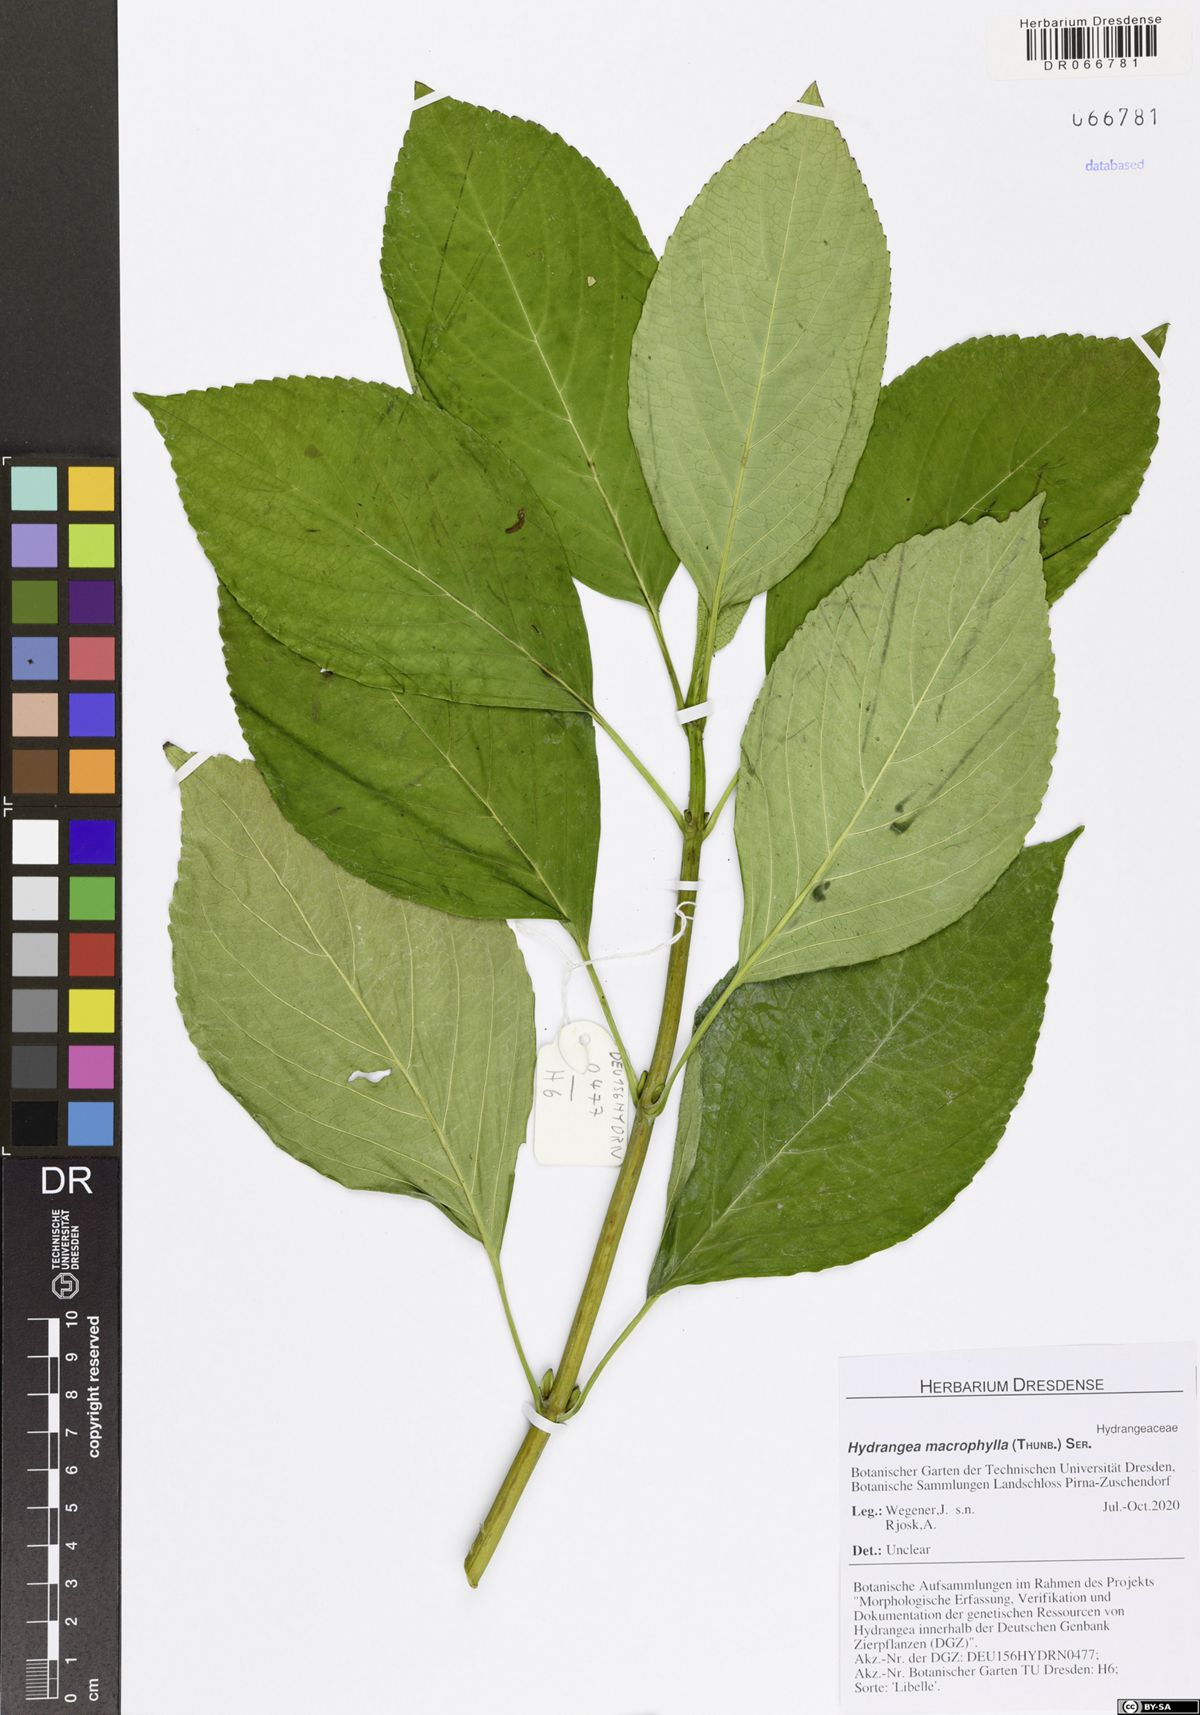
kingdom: Plantae
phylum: Tracheophyta
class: Magnoliopsida
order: Cornales
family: Hydrangeaceae
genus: Hydrangea
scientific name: Hydrangea macrophylla
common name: Hydrangea
